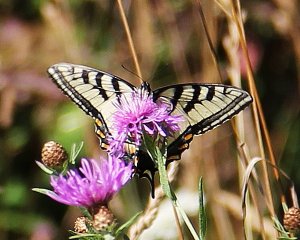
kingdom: Animalia
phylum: Arthropoda
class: Insecta
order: Lepidoptera
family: Papilionidae
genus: Pterourus
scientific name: Pterourus glaucus
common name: Eastern Tiger Swallowtail
